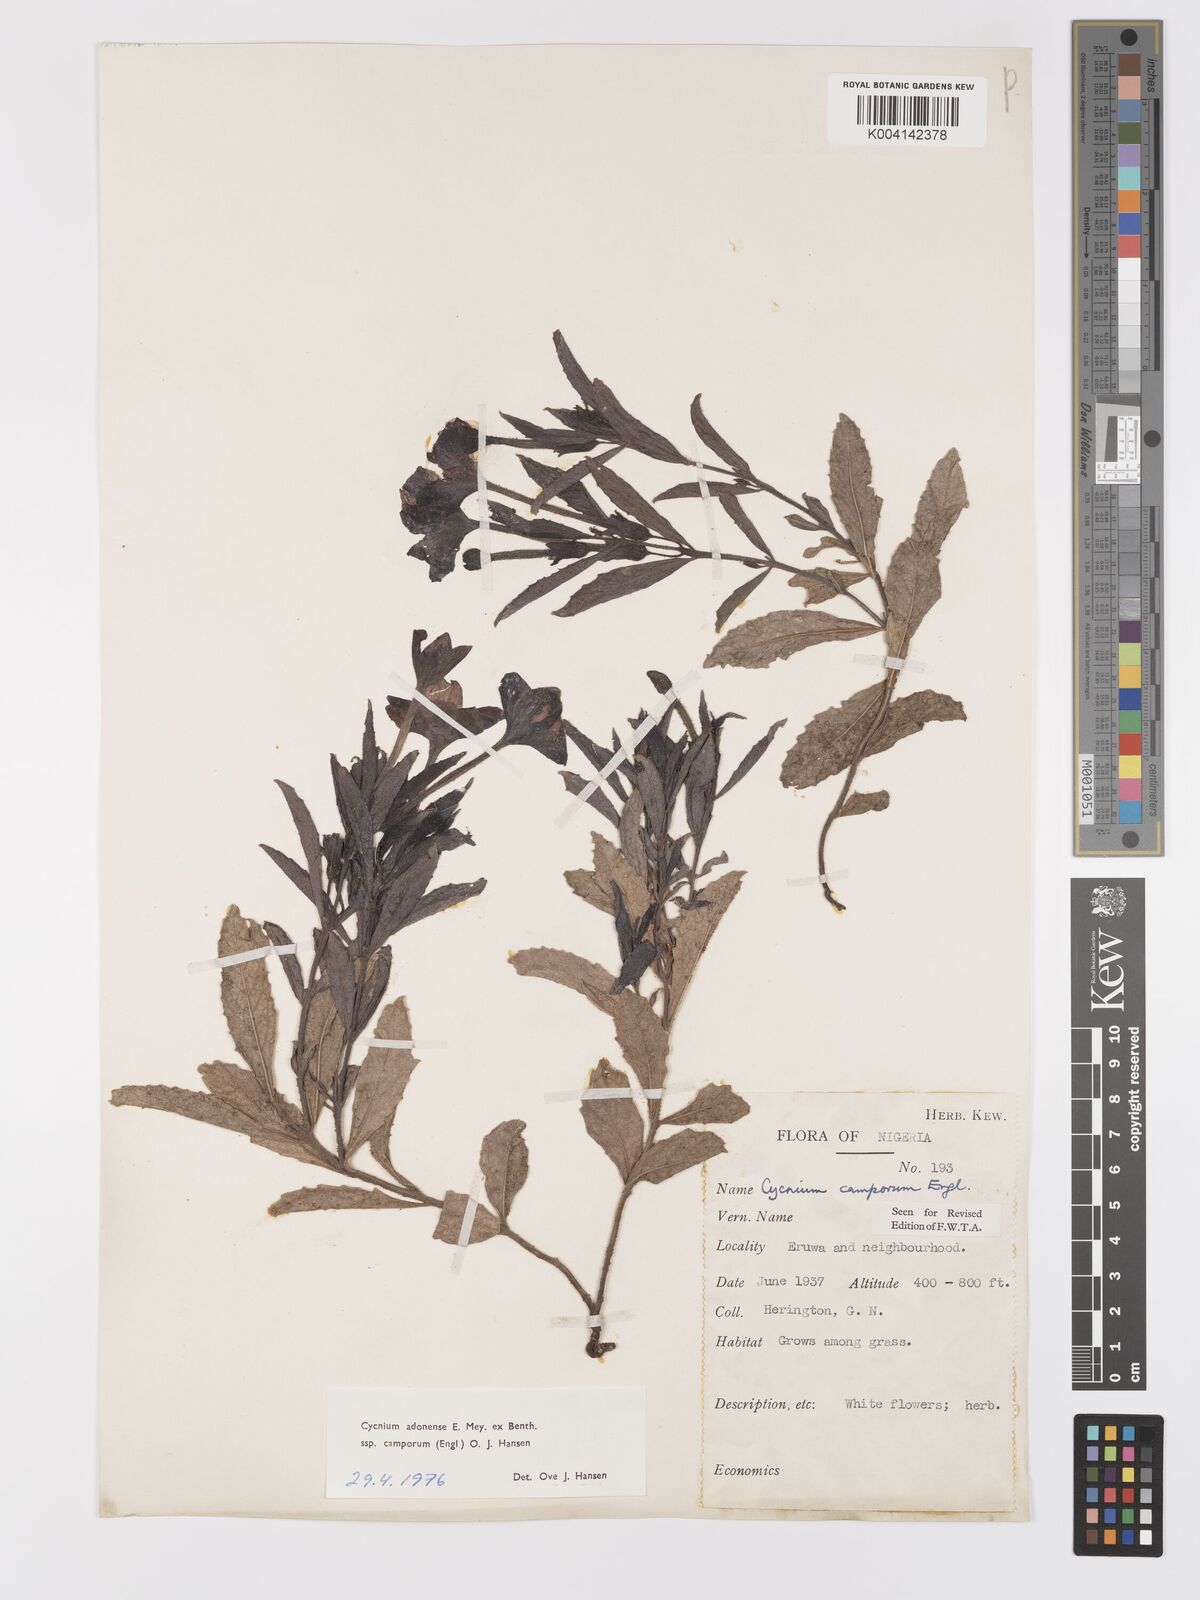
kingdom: Plantae
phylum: Tracheophyta
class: Magnoliopsida
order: Lamiales
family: Orobanchaceae
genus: Cycnium
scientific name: Cycnium adoense
